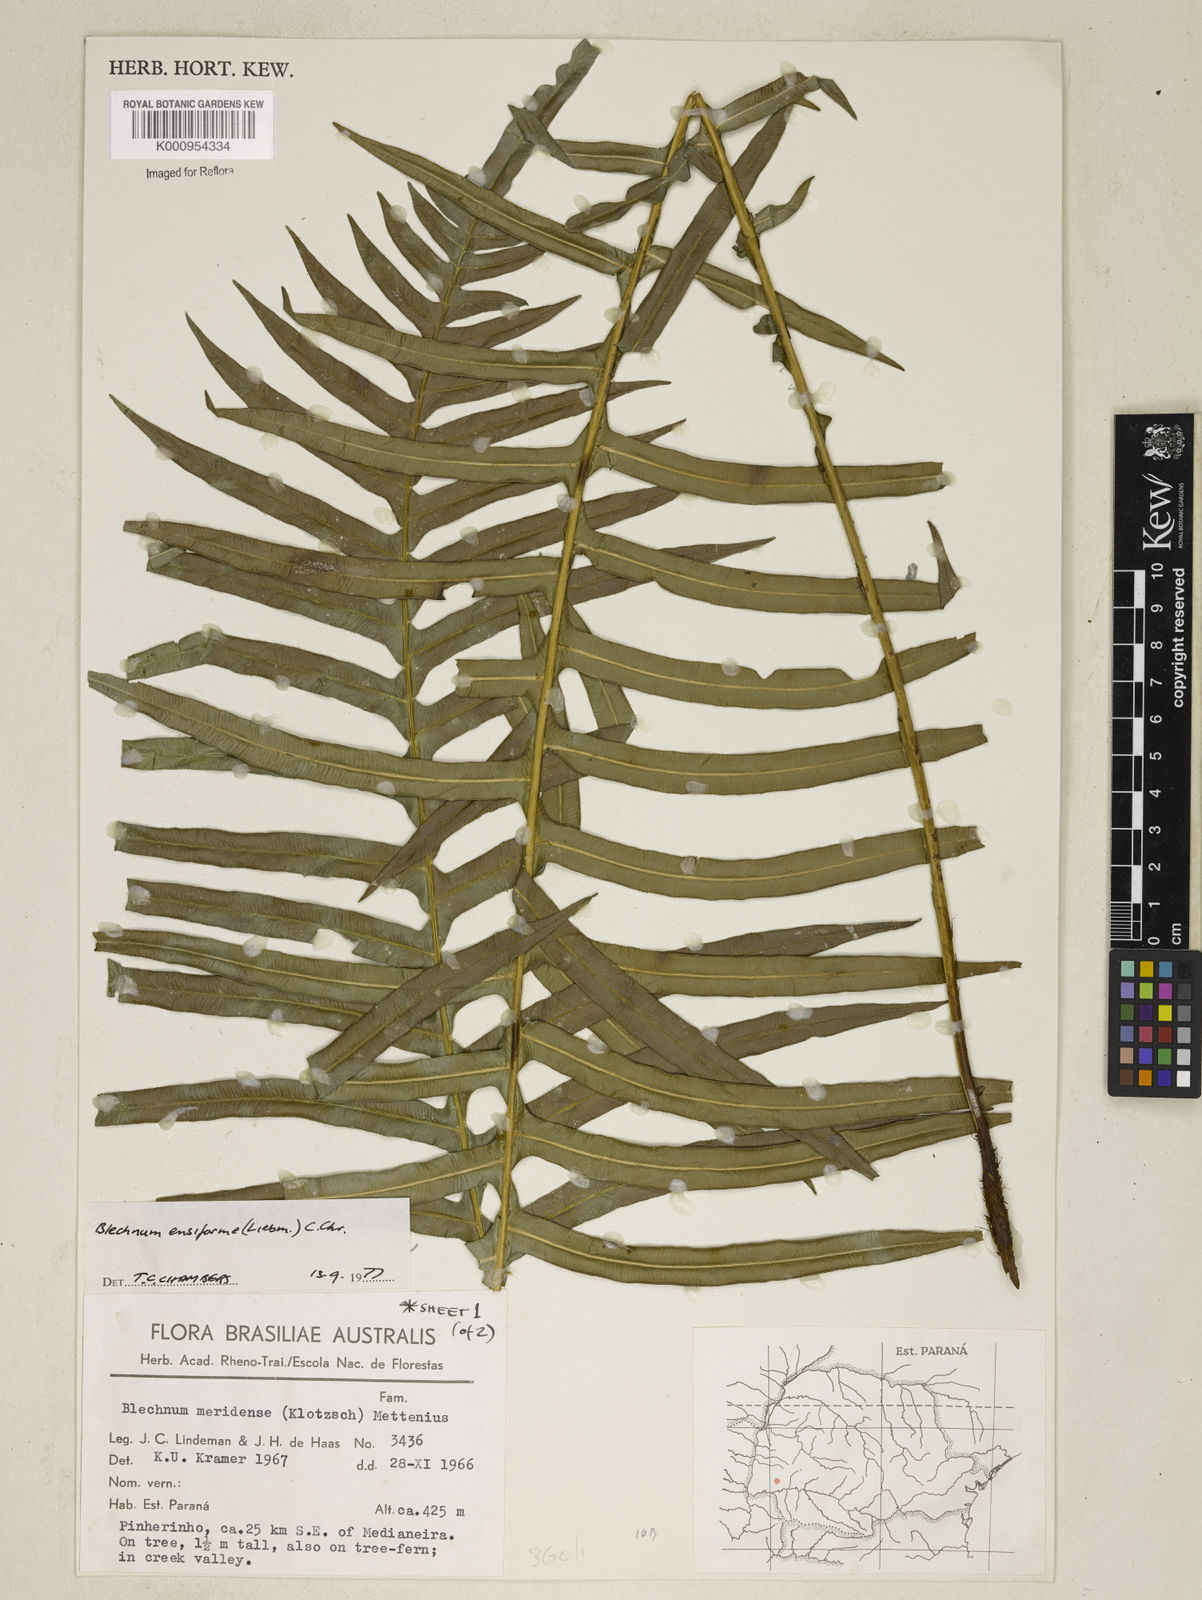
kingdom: Plantae
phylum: Tracheophyta
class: Polypodiopsida
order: Polypodiales
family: Blechnaceae
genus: Lomaridium
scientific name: Lomaridium ensiforme
